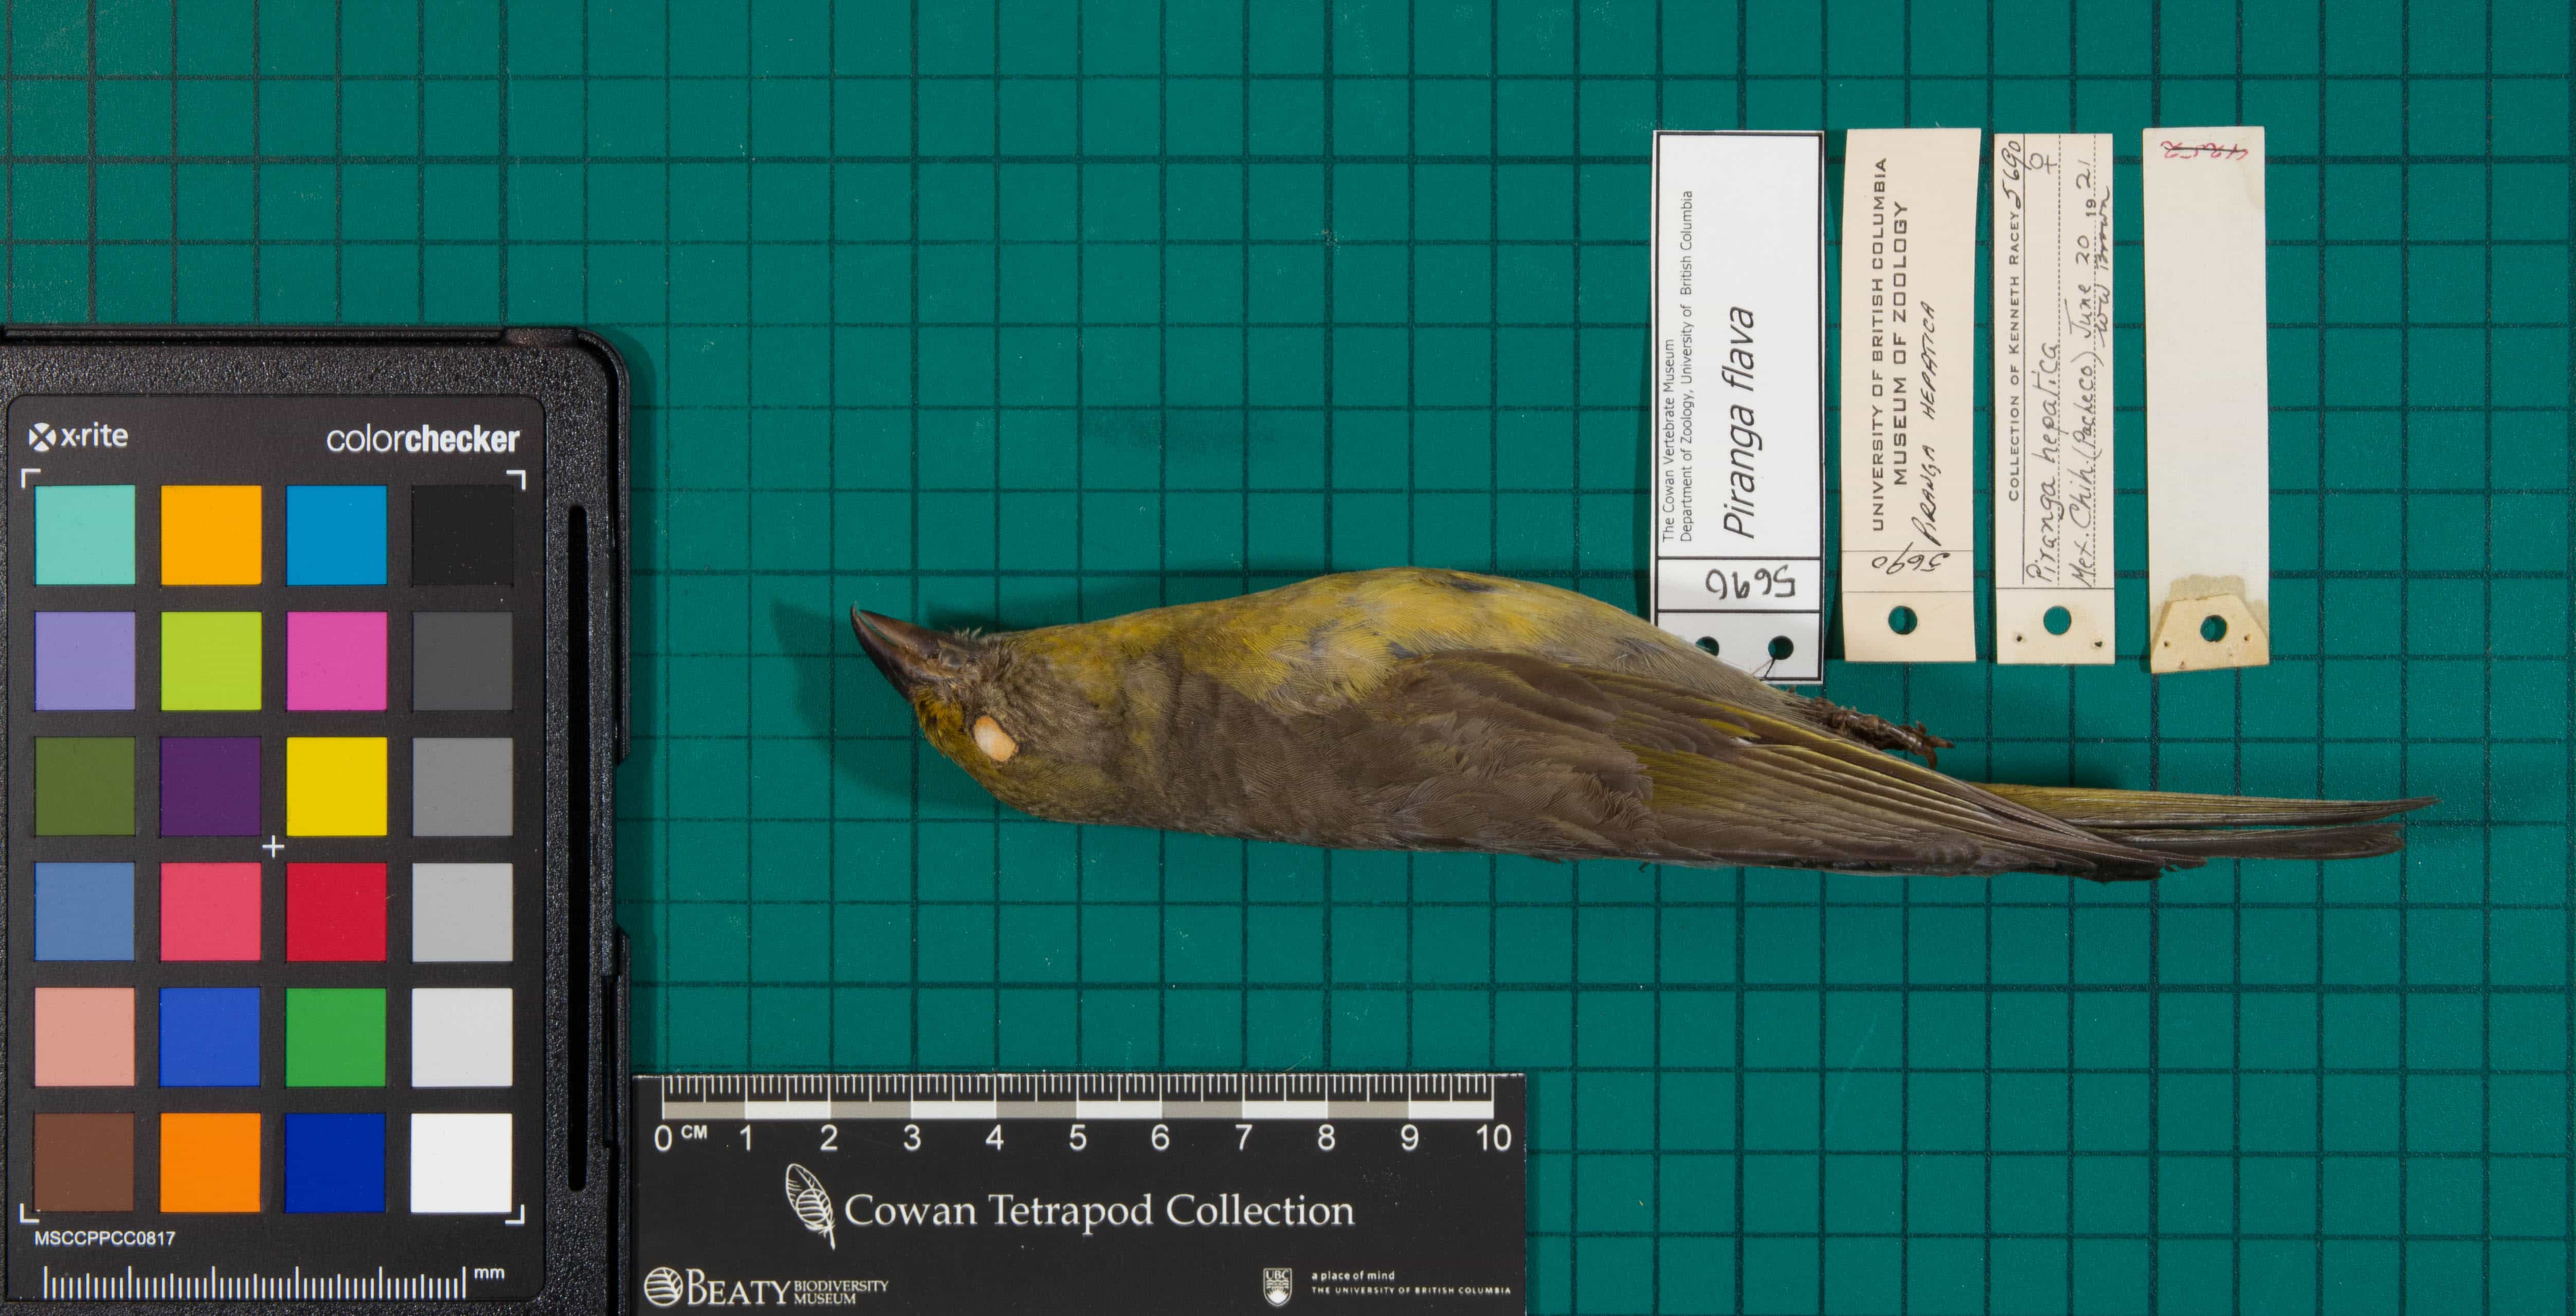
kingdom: Animalia
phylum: Chordata
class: Aves
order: Passeriformes
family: Cardinalidae
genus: Piranga
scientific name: Piranga flava
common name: Hepatic Tanager
